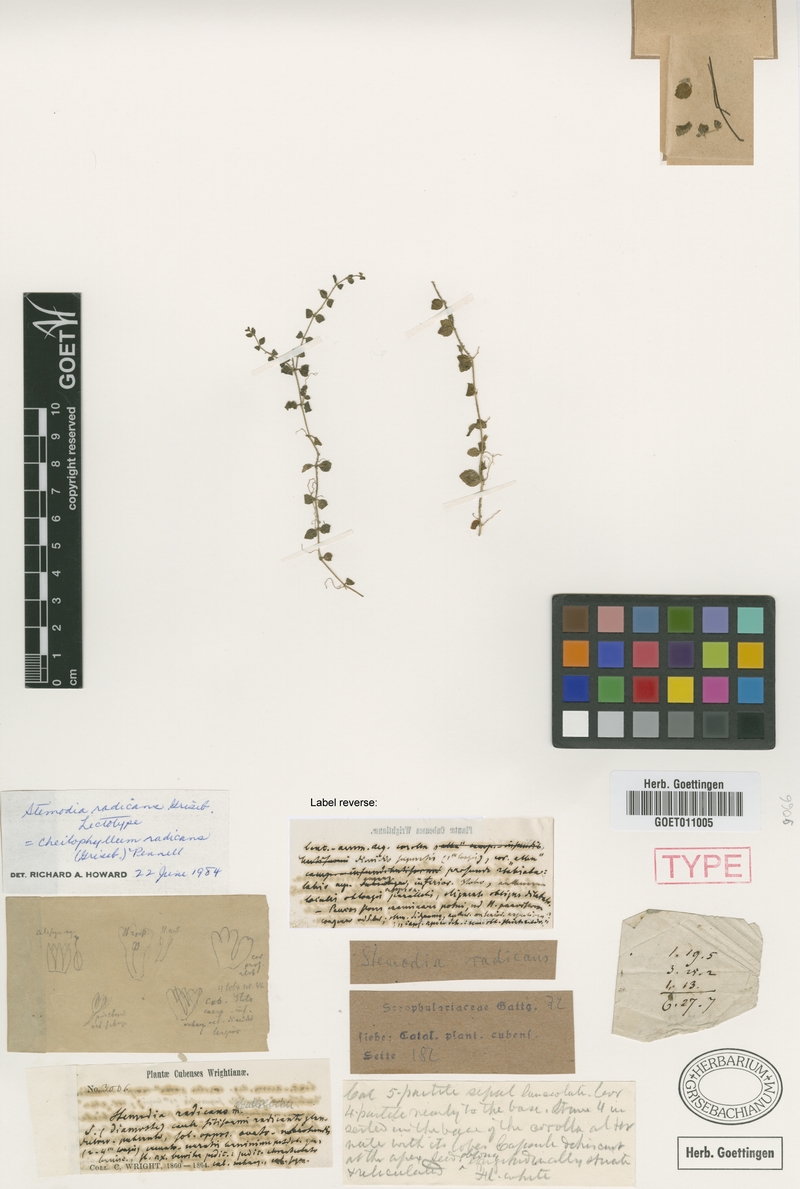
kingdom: Plantae
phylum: Tracheophyta
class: Magnoliopsida
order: Lamiales
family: Plantaginaceae
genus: Cheilophyllum
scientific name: Cheilophyllum radicans
